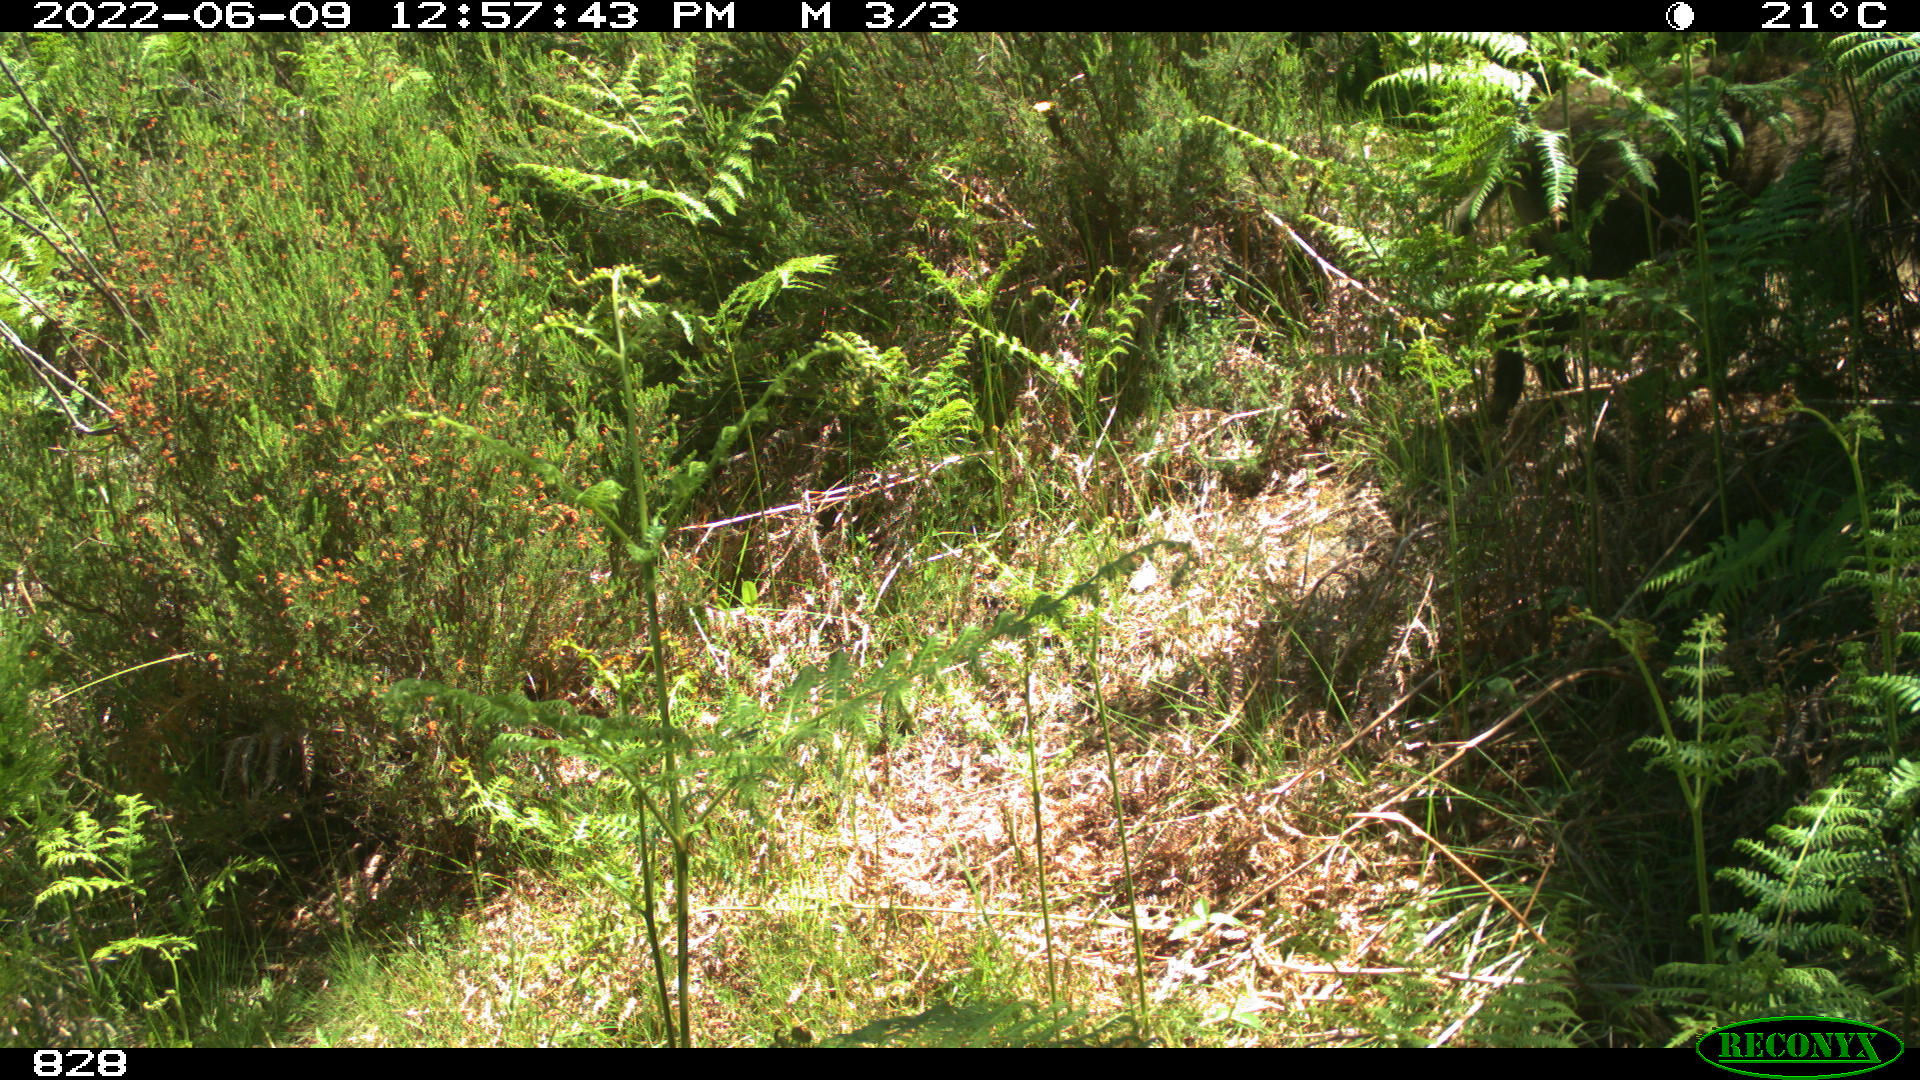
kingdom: Animalia
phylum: Chordata
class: Mammalia
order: Artiodactyla
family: Suidae
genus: Sus
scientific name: Sus scrofa
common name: Wild boar
